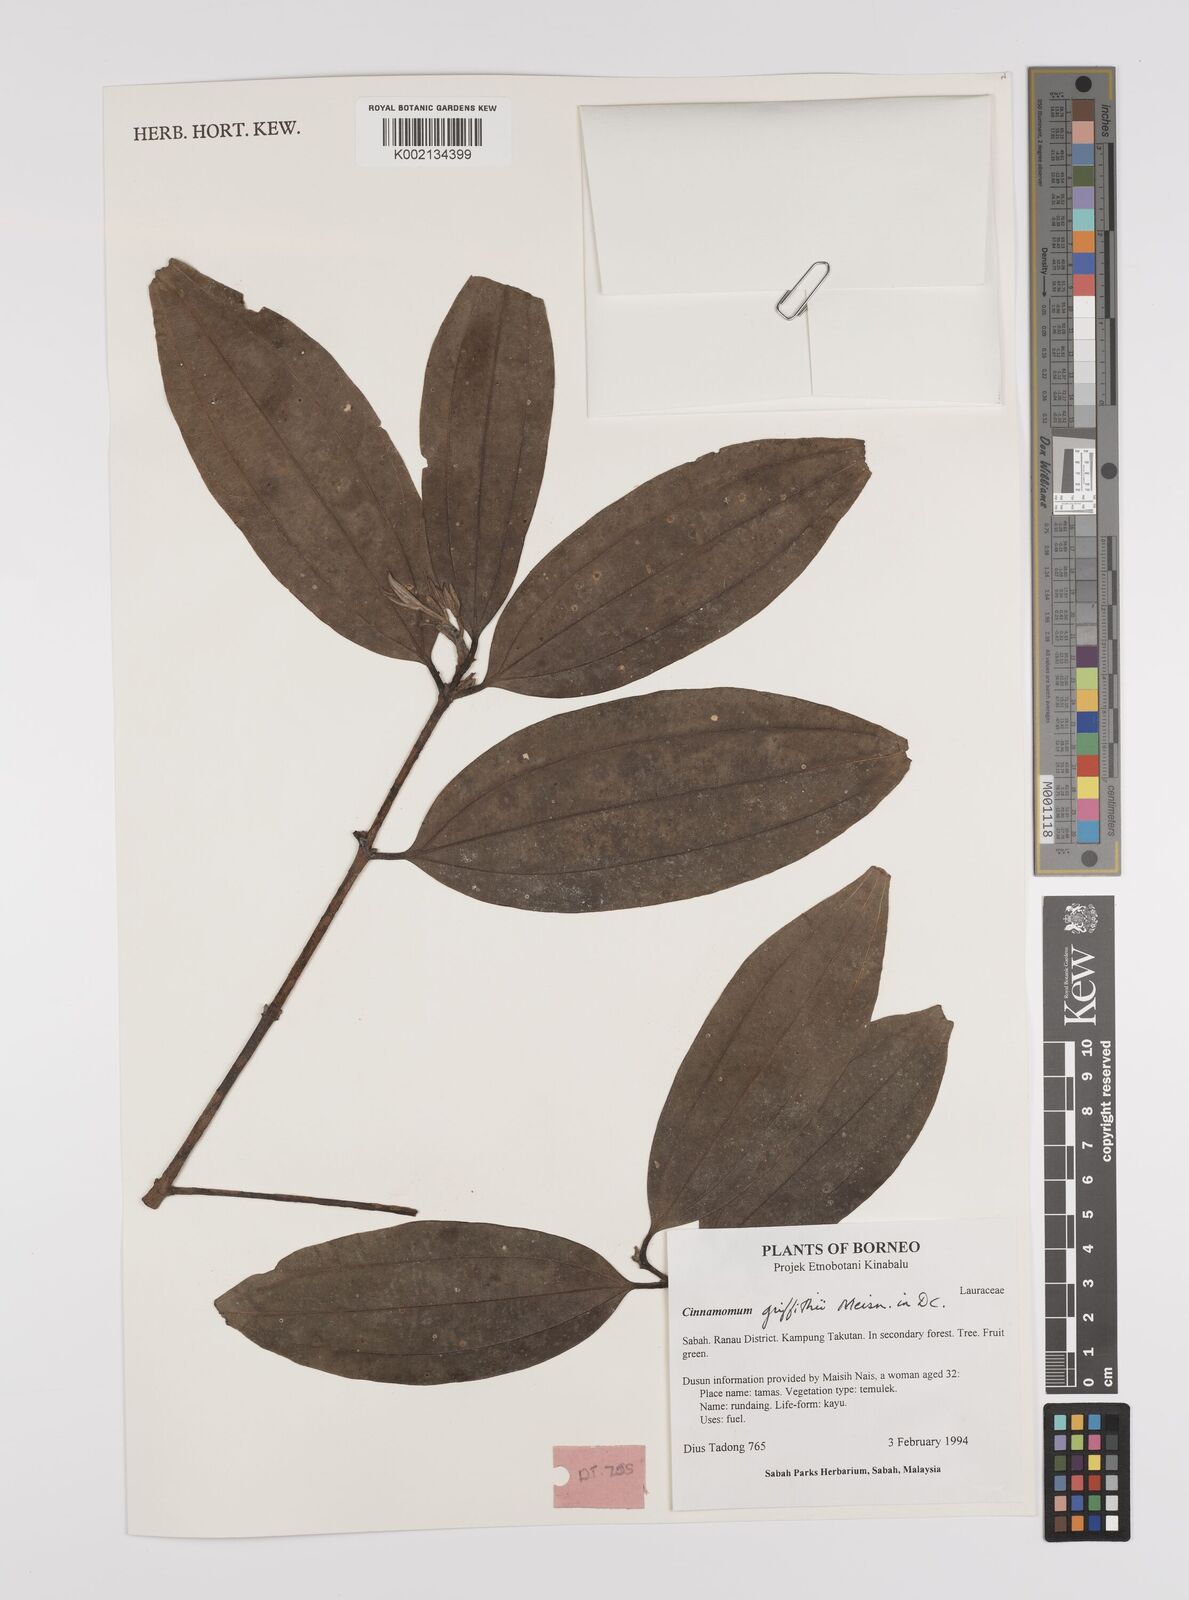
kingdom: Plantae
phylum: Tracheophyta
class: Magnoliopsida
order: Laurales
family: Lauraceae
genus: Cinnamomum
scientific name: Cinnamomum iners
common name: Wild cinnamon
